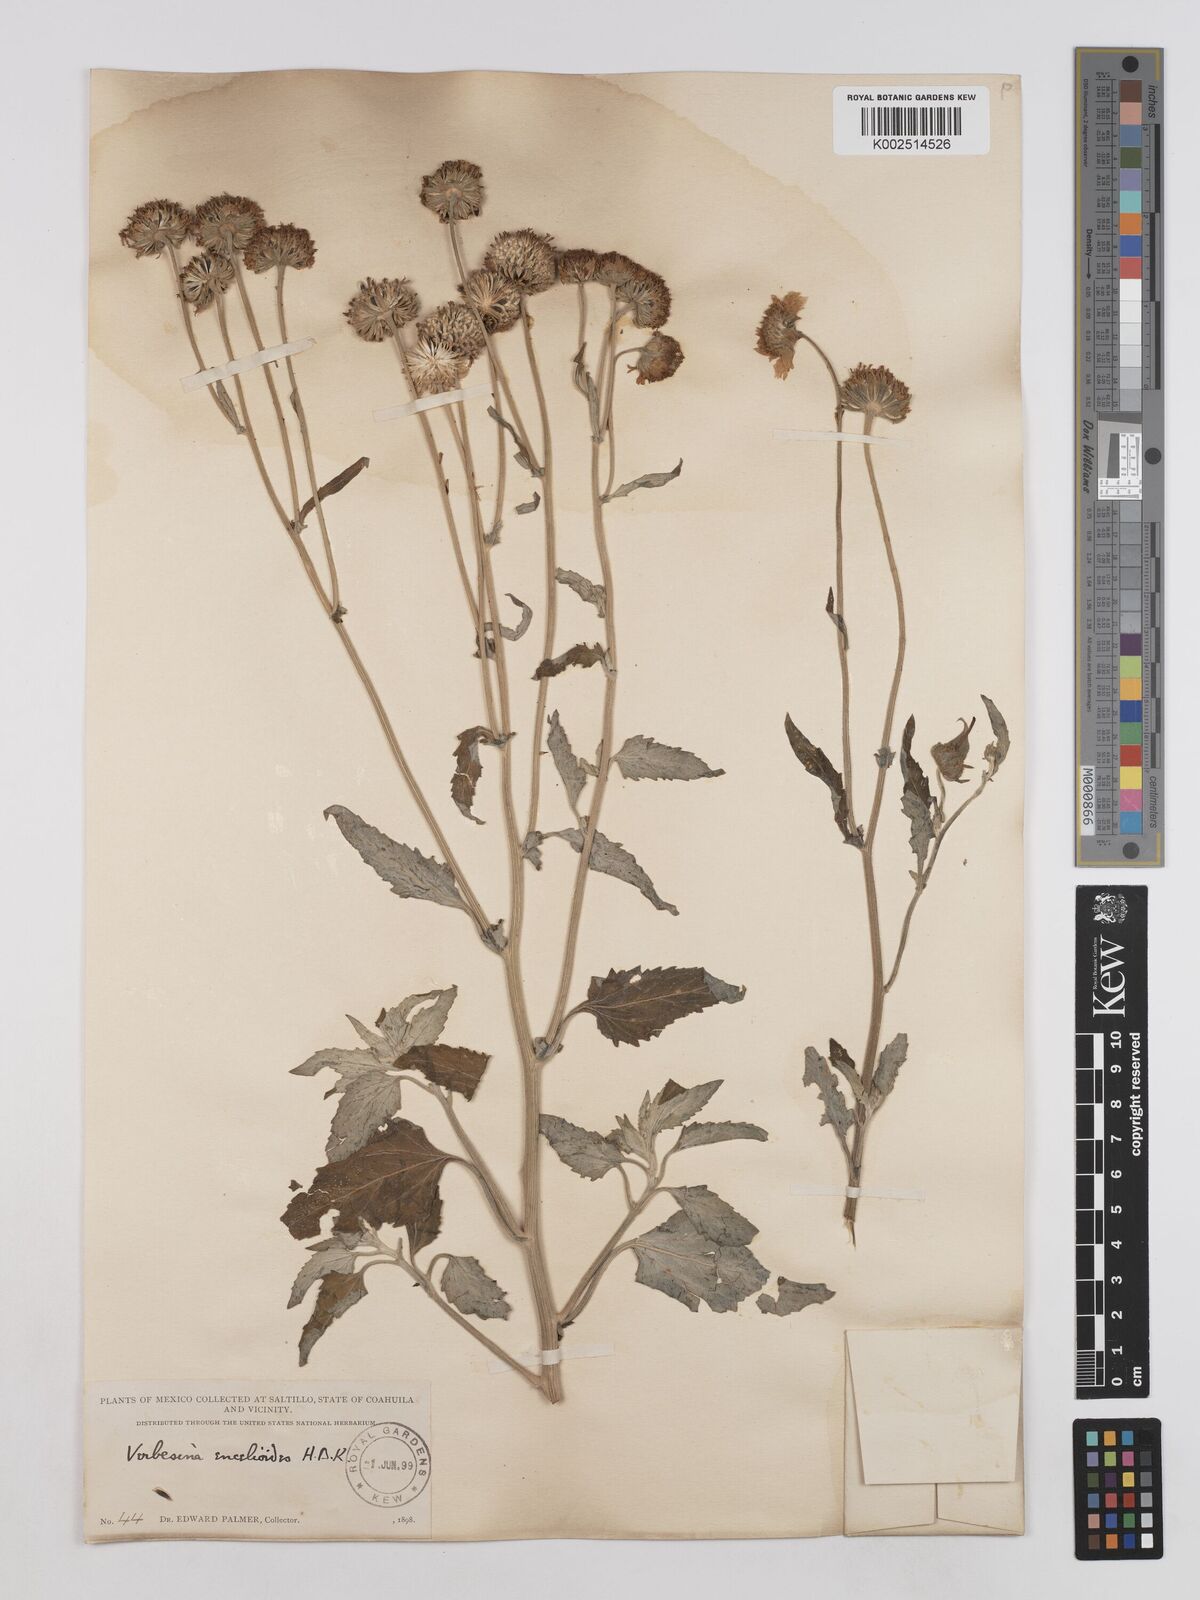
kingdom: Plantae
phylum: Tracheophyta
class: Magnoliopsida
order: Asterales
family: Asteraceae
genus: Verbesina
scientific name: Verbesina encelioides
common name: Golden crownbeard
